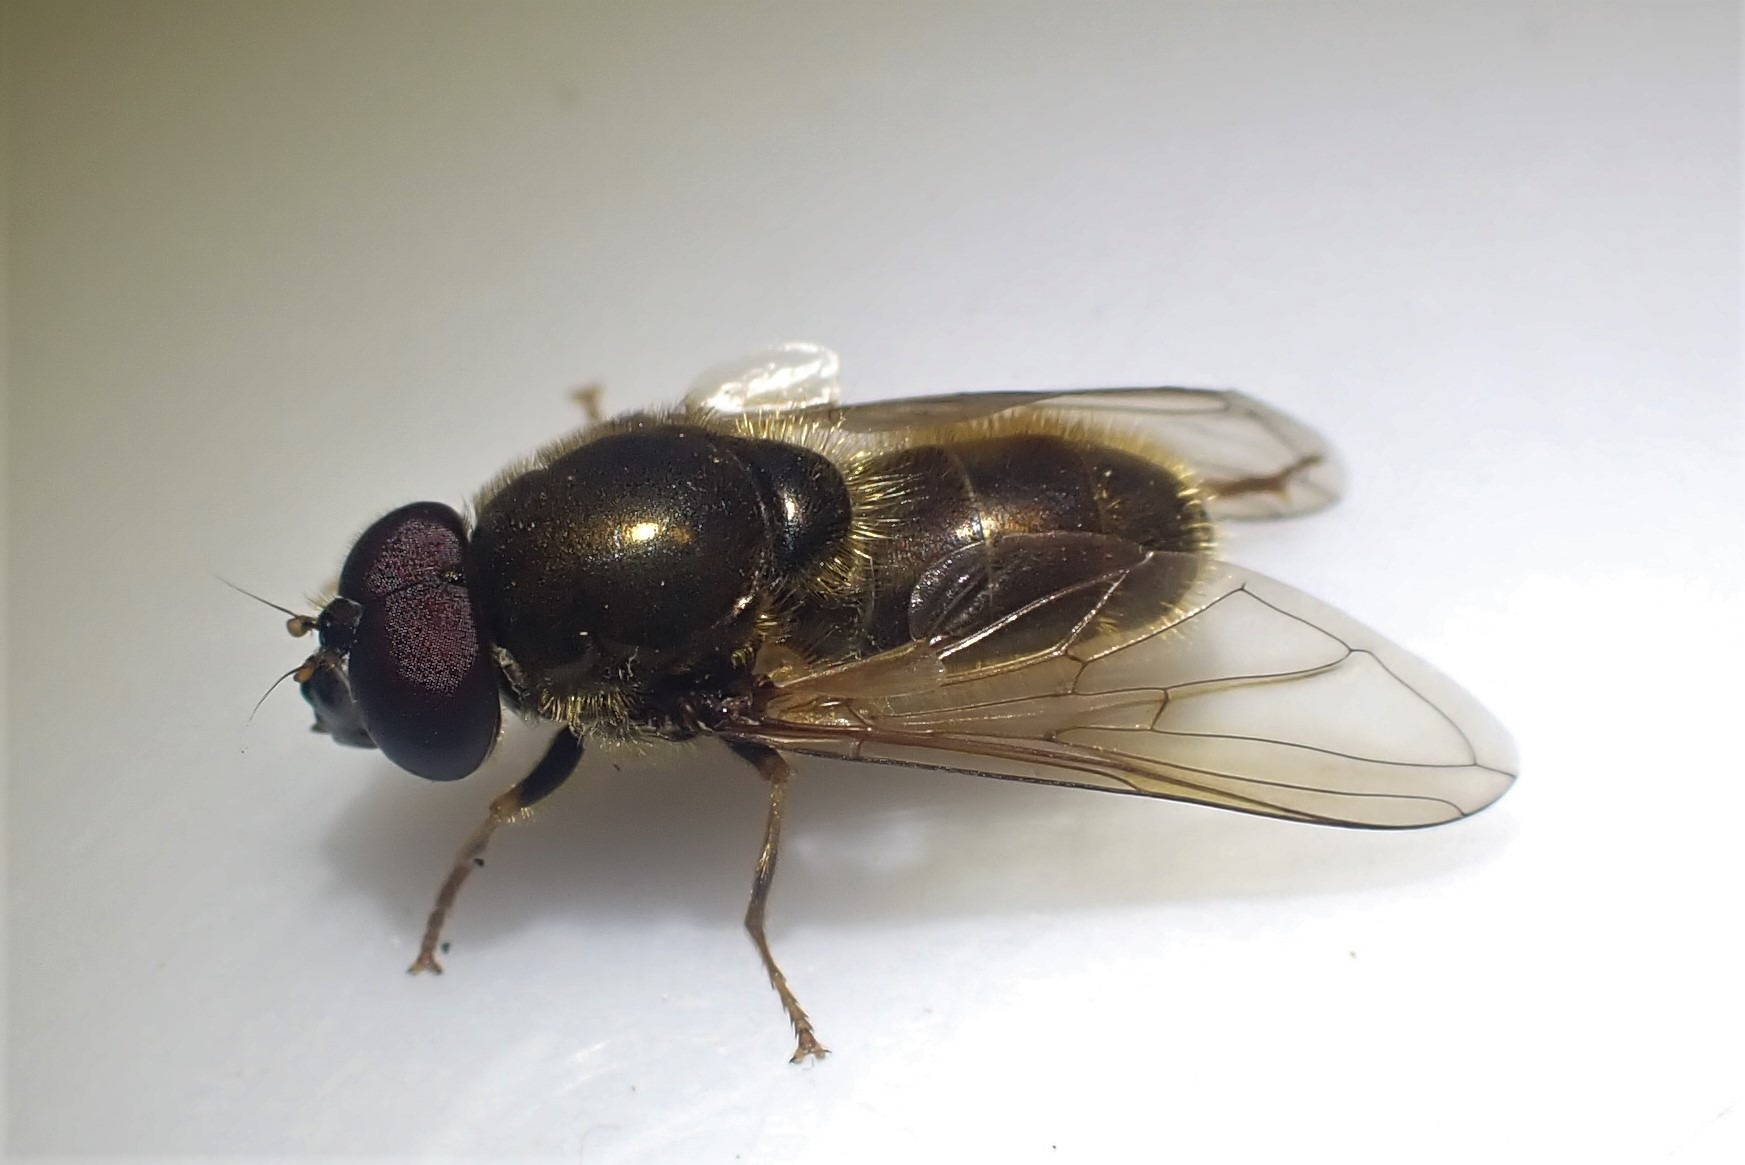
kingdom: Animalia
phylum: Arthropoda
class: Insecta
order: Diptera
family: Syrphidae
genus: Cheilosia
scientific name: Cheilosia himantopus
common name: Hestehov-urtesvirreflue
